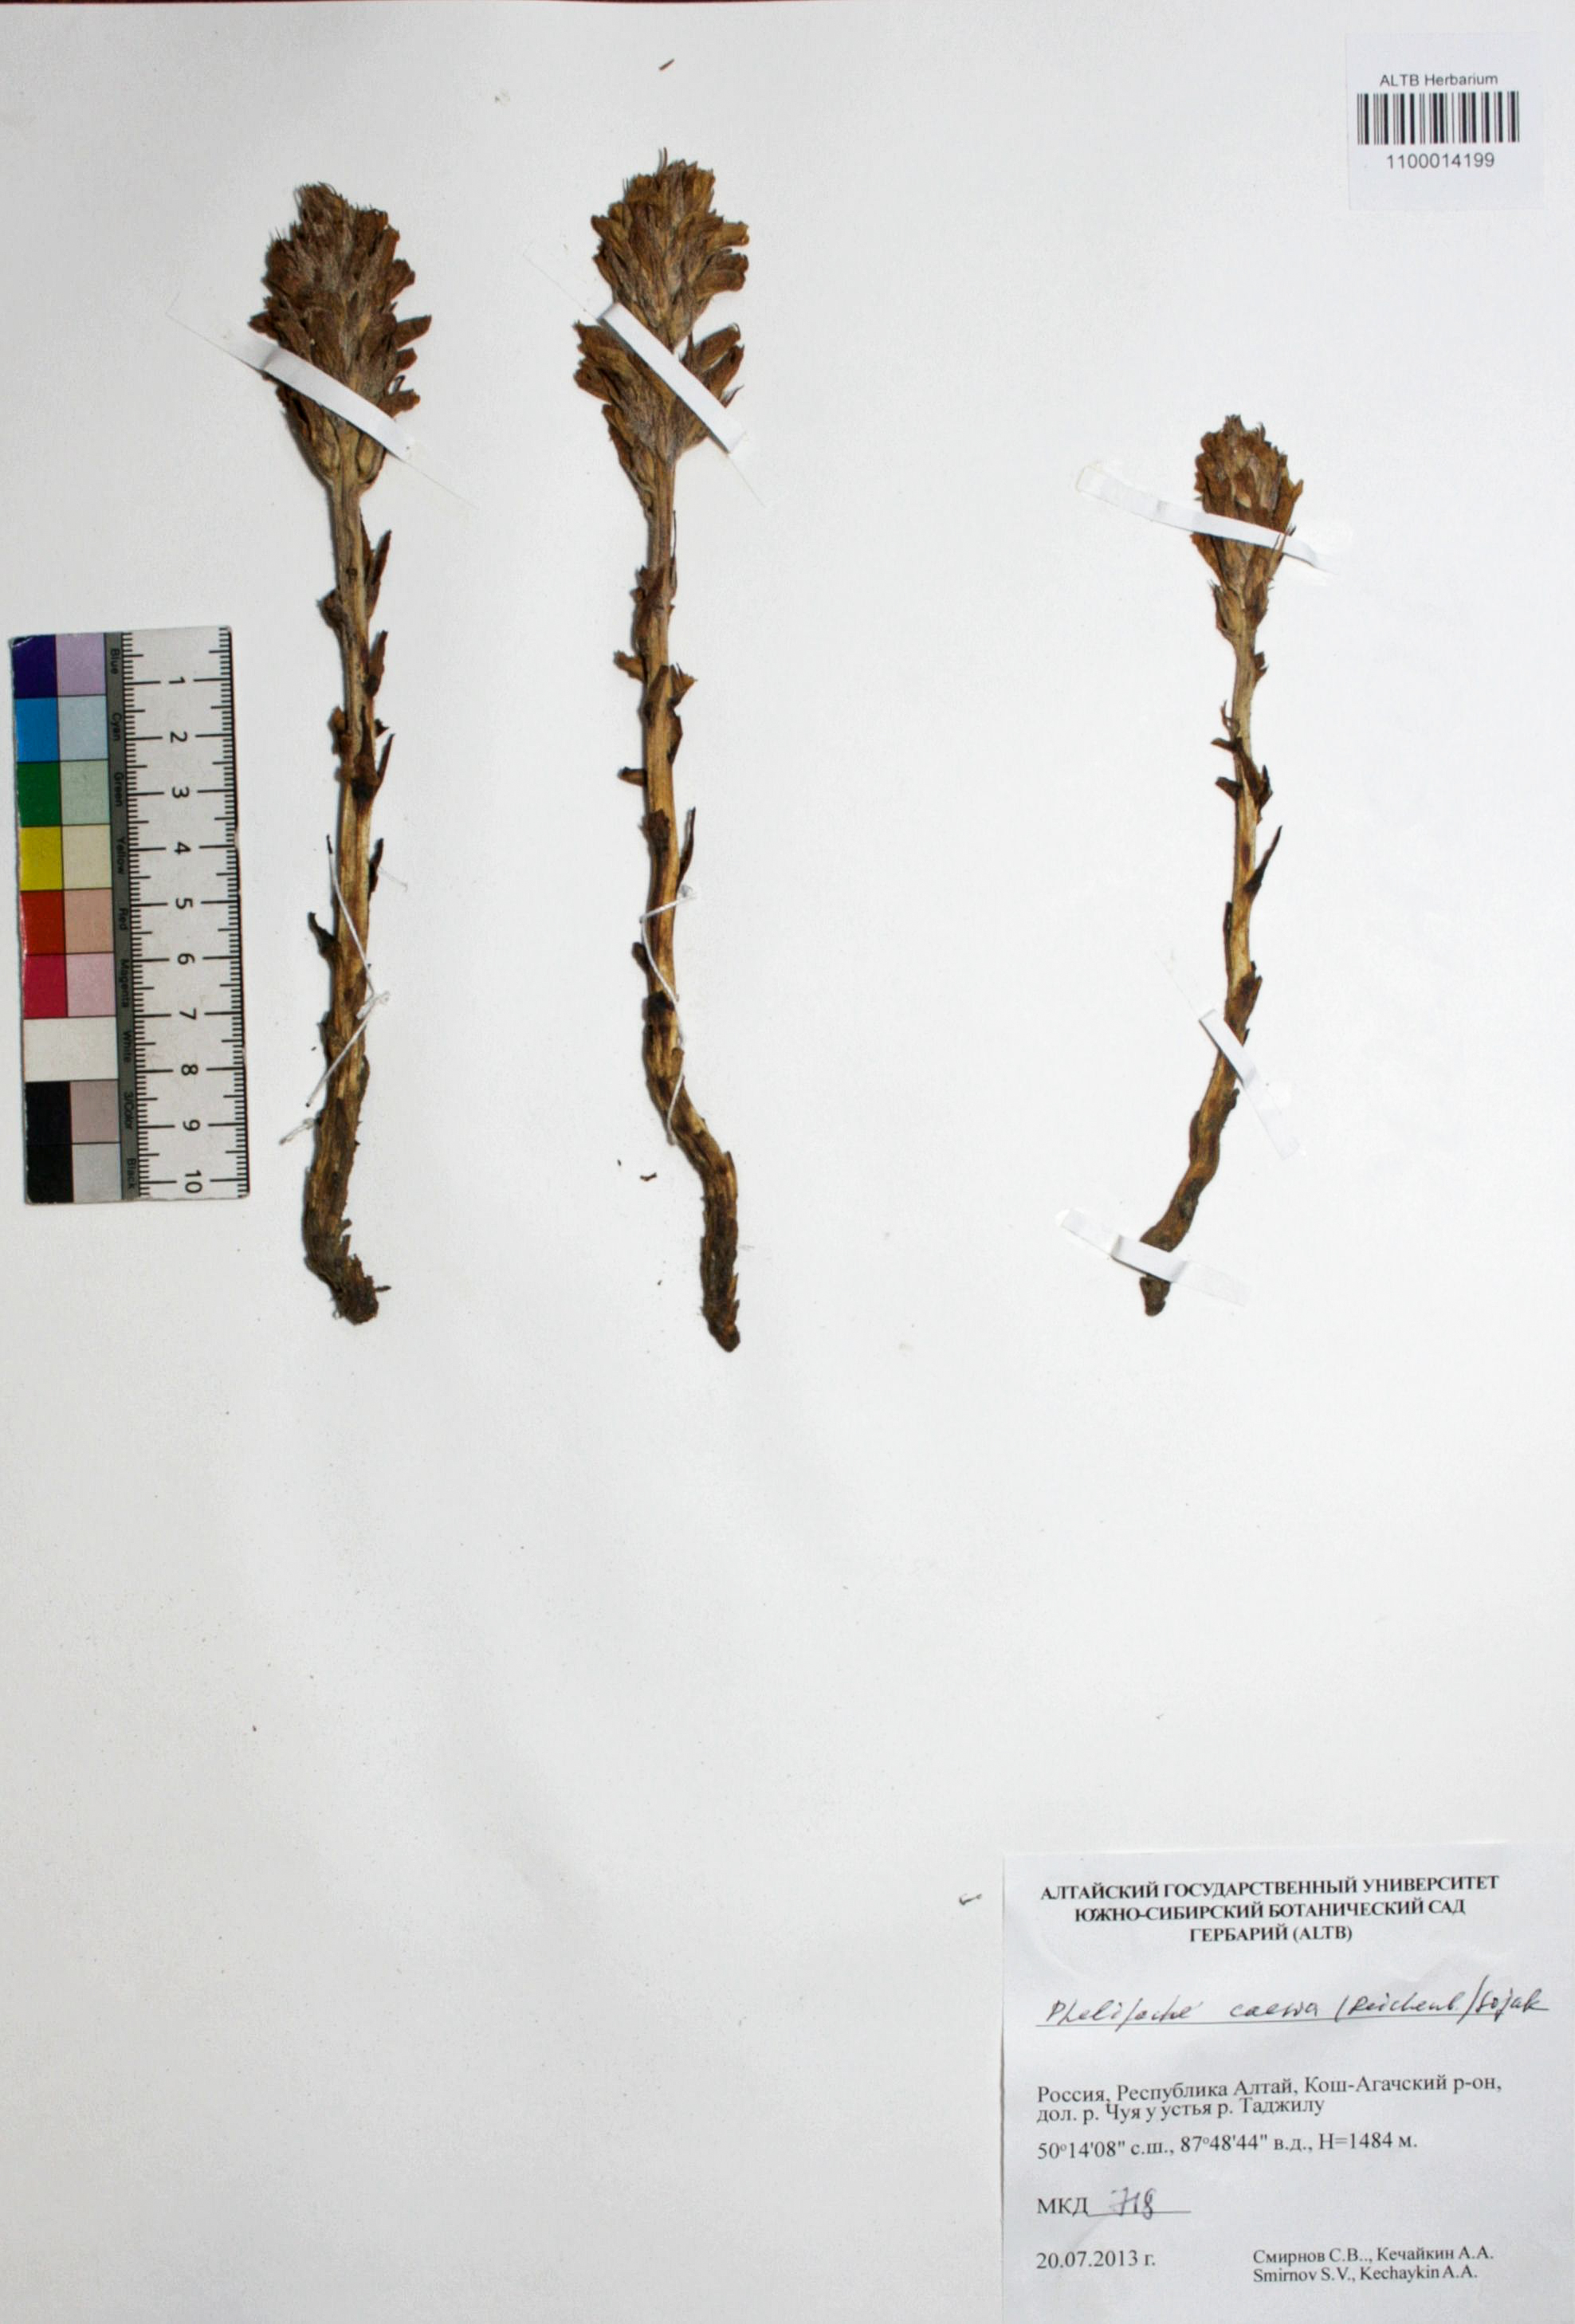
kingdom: Plantae
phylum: Tracheophyta
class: Magnoliopsida
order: Lamiales
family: Orobanchaceae
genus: Phelipanche
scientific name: Phelipanche caesia
